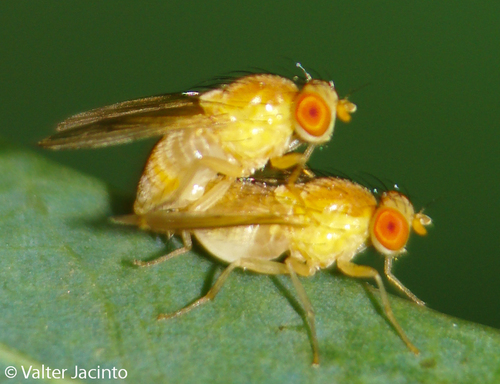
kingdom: Animalia
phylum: Arthropoda
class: Insecta
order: Diptera
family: Lauxaniidae
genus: Homoneura
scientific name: Homoneura
